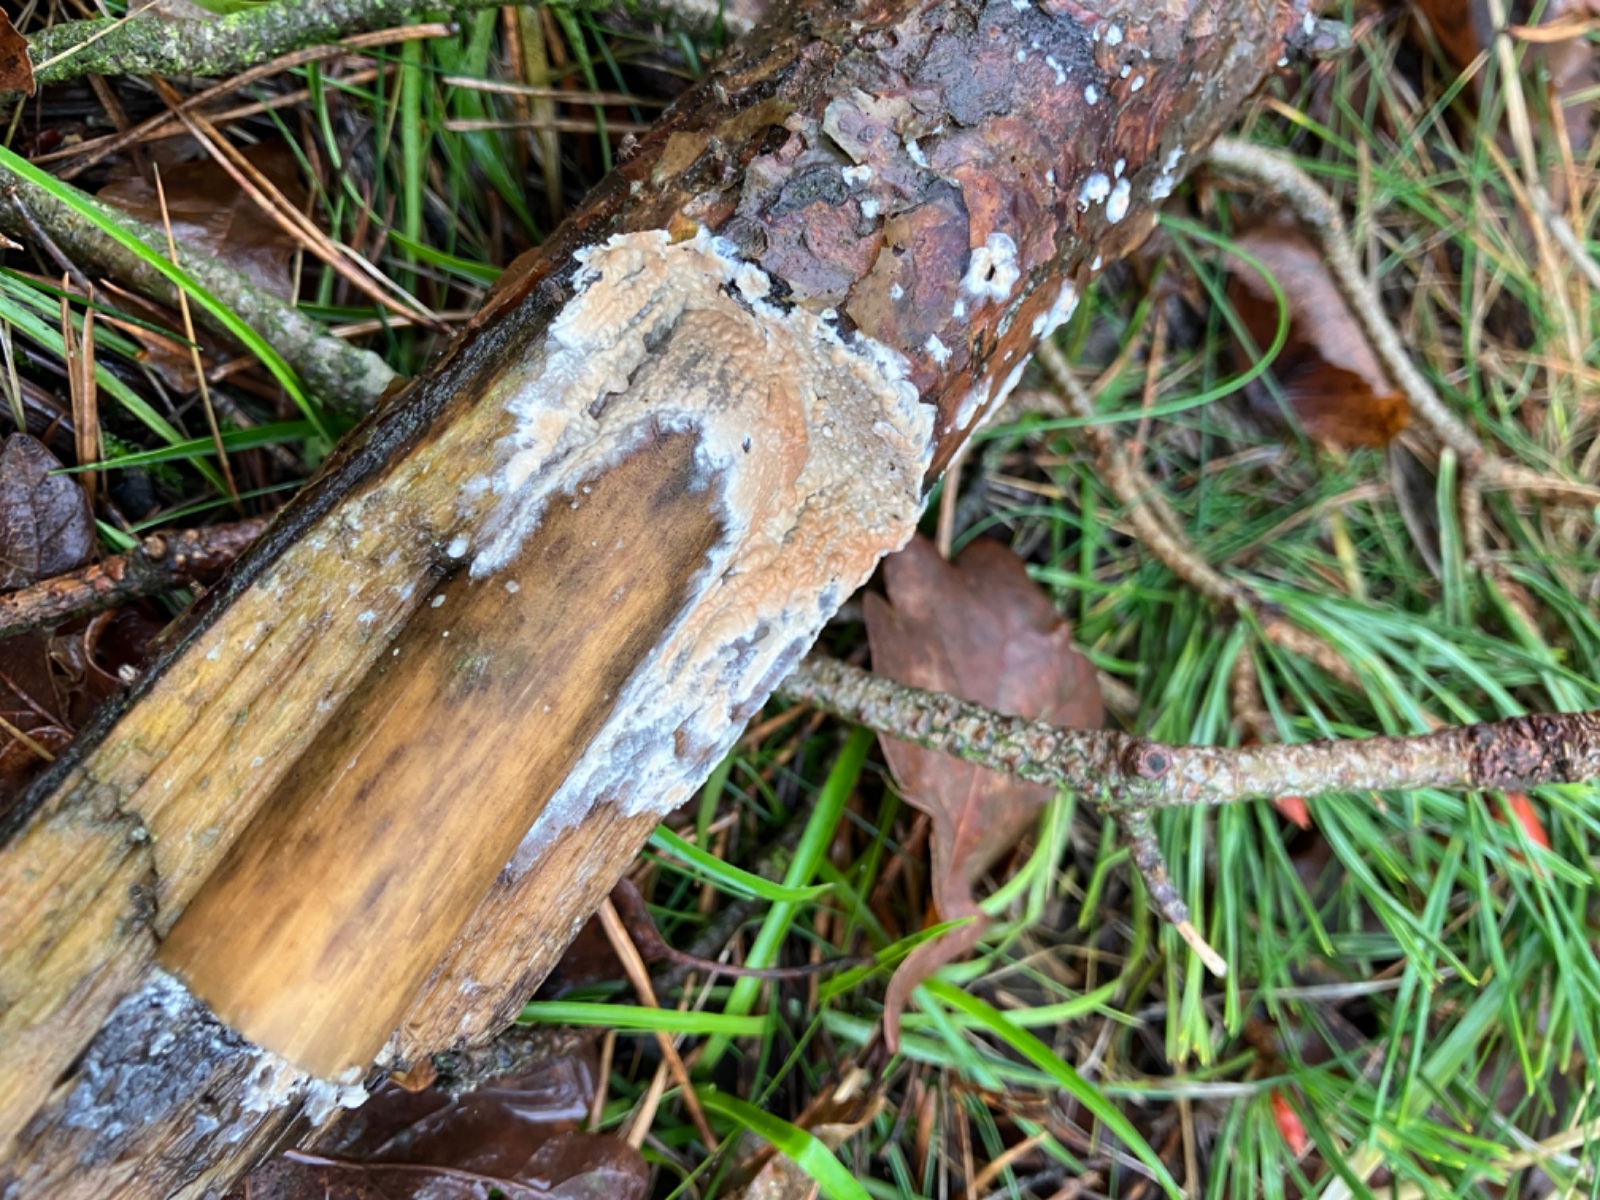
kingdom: Fungi
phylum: Basidiomycota
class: Agaricomycetes
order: Agaricales
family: Physalacriaceae
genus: Cylindrobasidium
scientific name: Cylindrobasidium evolvens
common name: sprækkehinde
